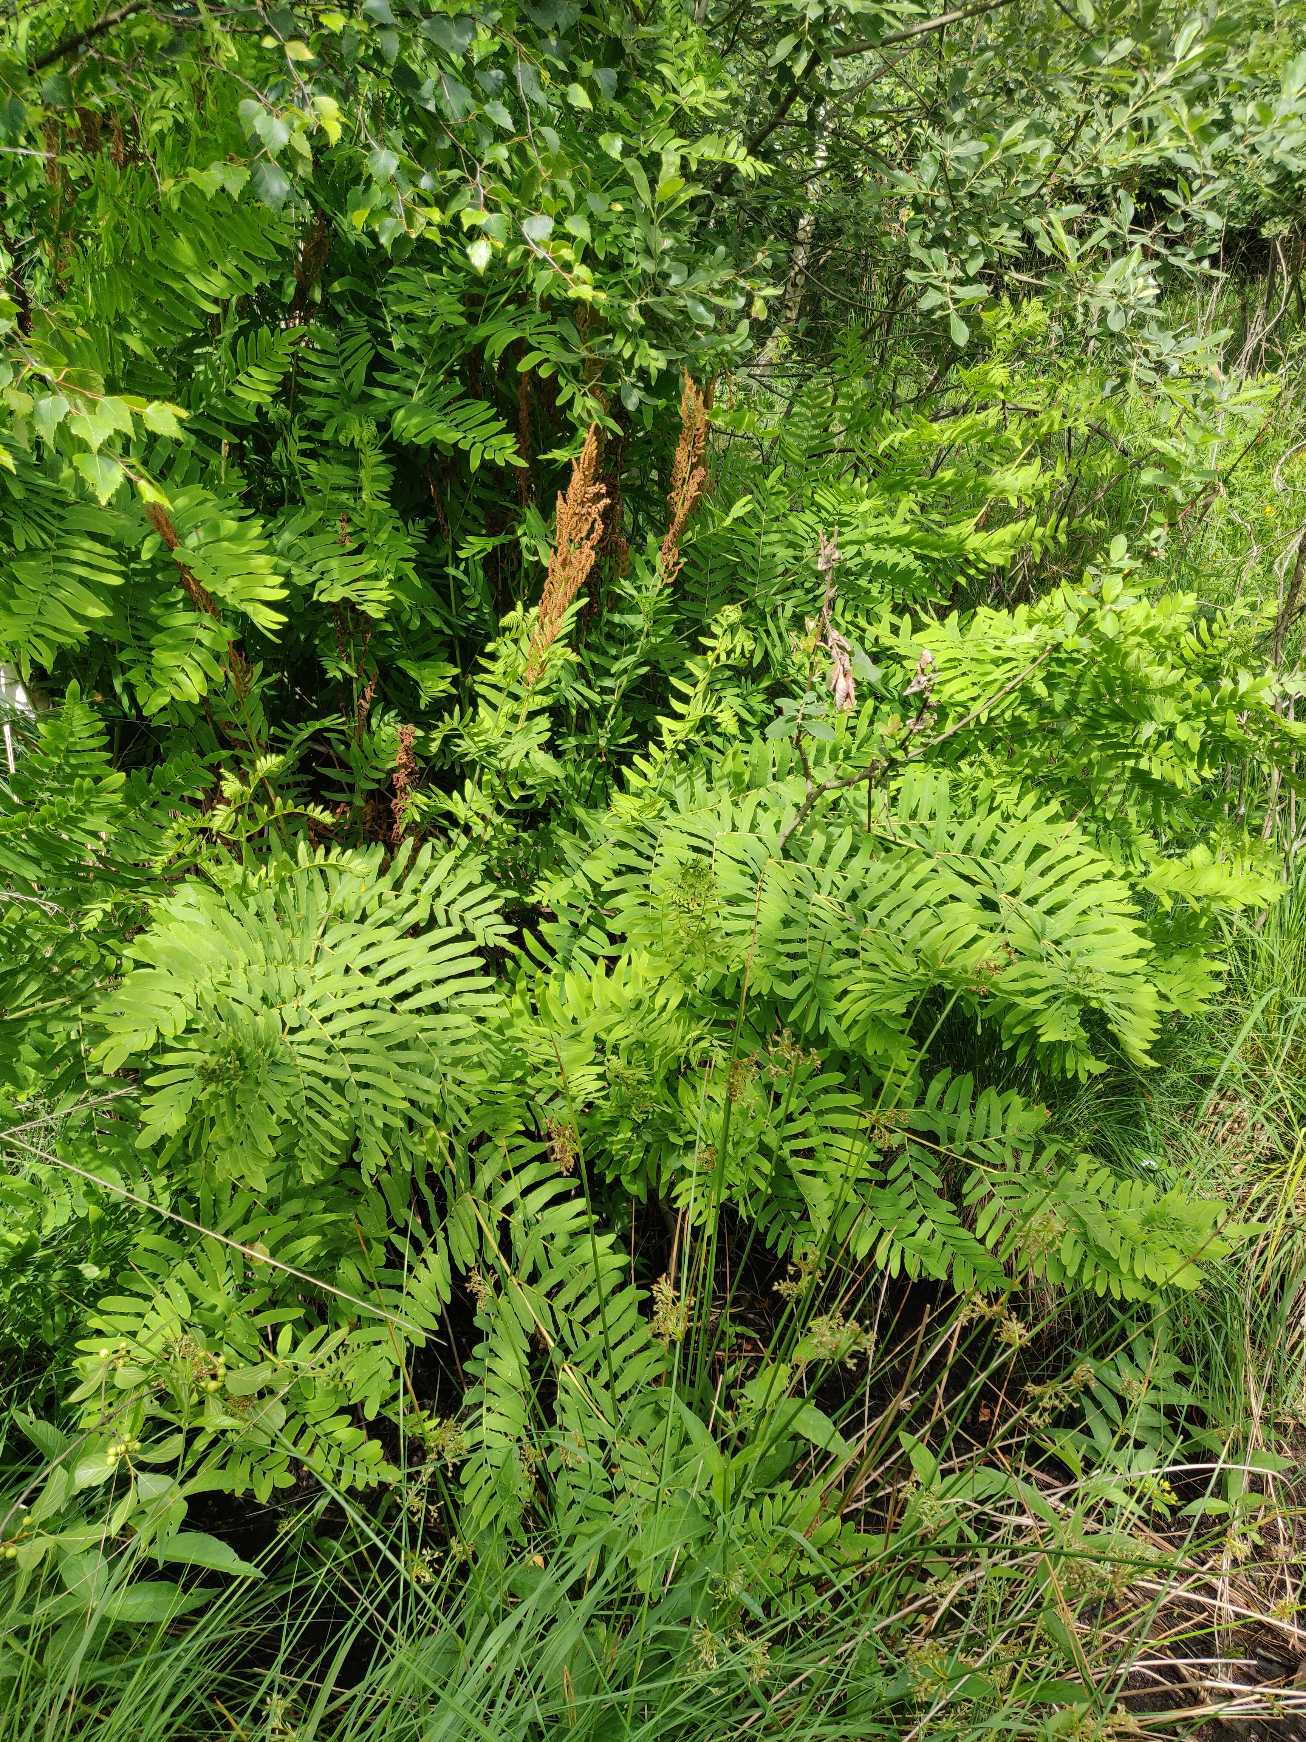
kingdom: Plantae
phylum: Tracheophyta
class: Polypodiopsida
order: Osmundales
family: Osmundaceae
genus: Osmunda
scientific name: Osmunda regalis
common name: Kongebregne
